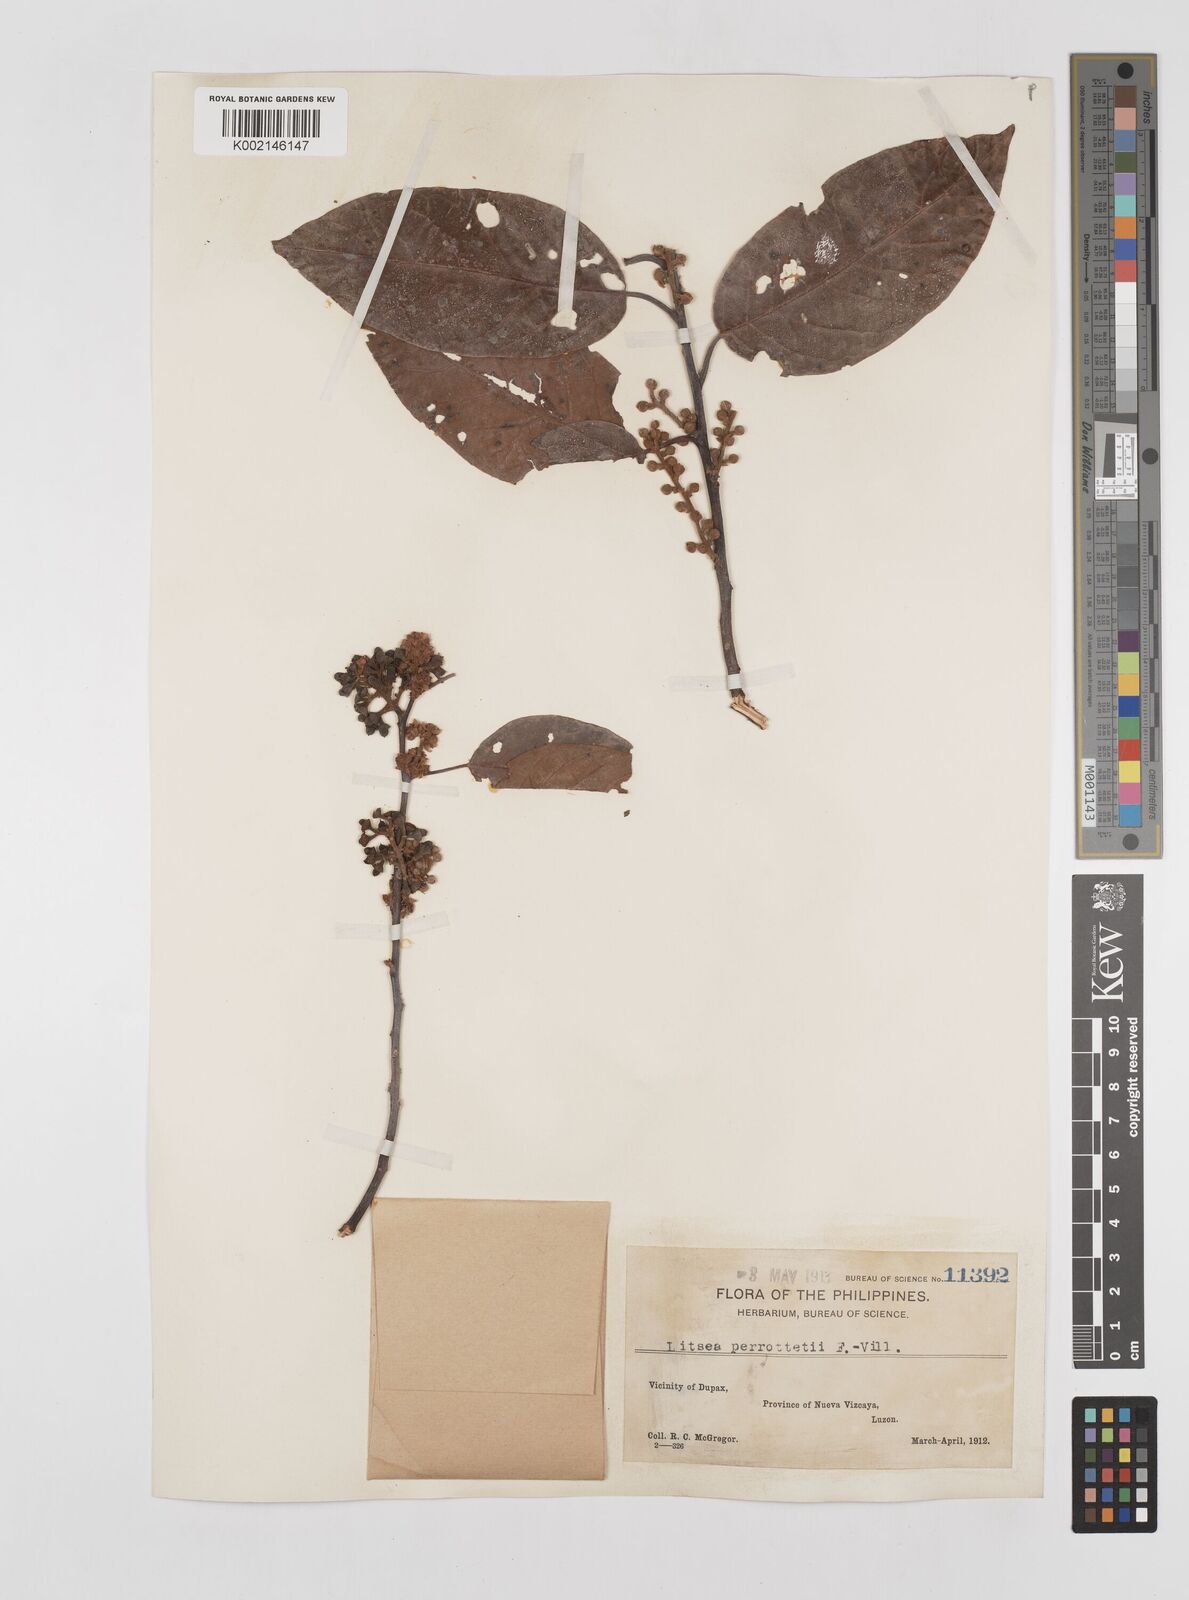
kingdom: Plantae
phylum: Tracheophyta
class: Magnoliopsida
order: Laurales
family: Lauraceae
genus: Litsea
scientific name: Litsea cordata
